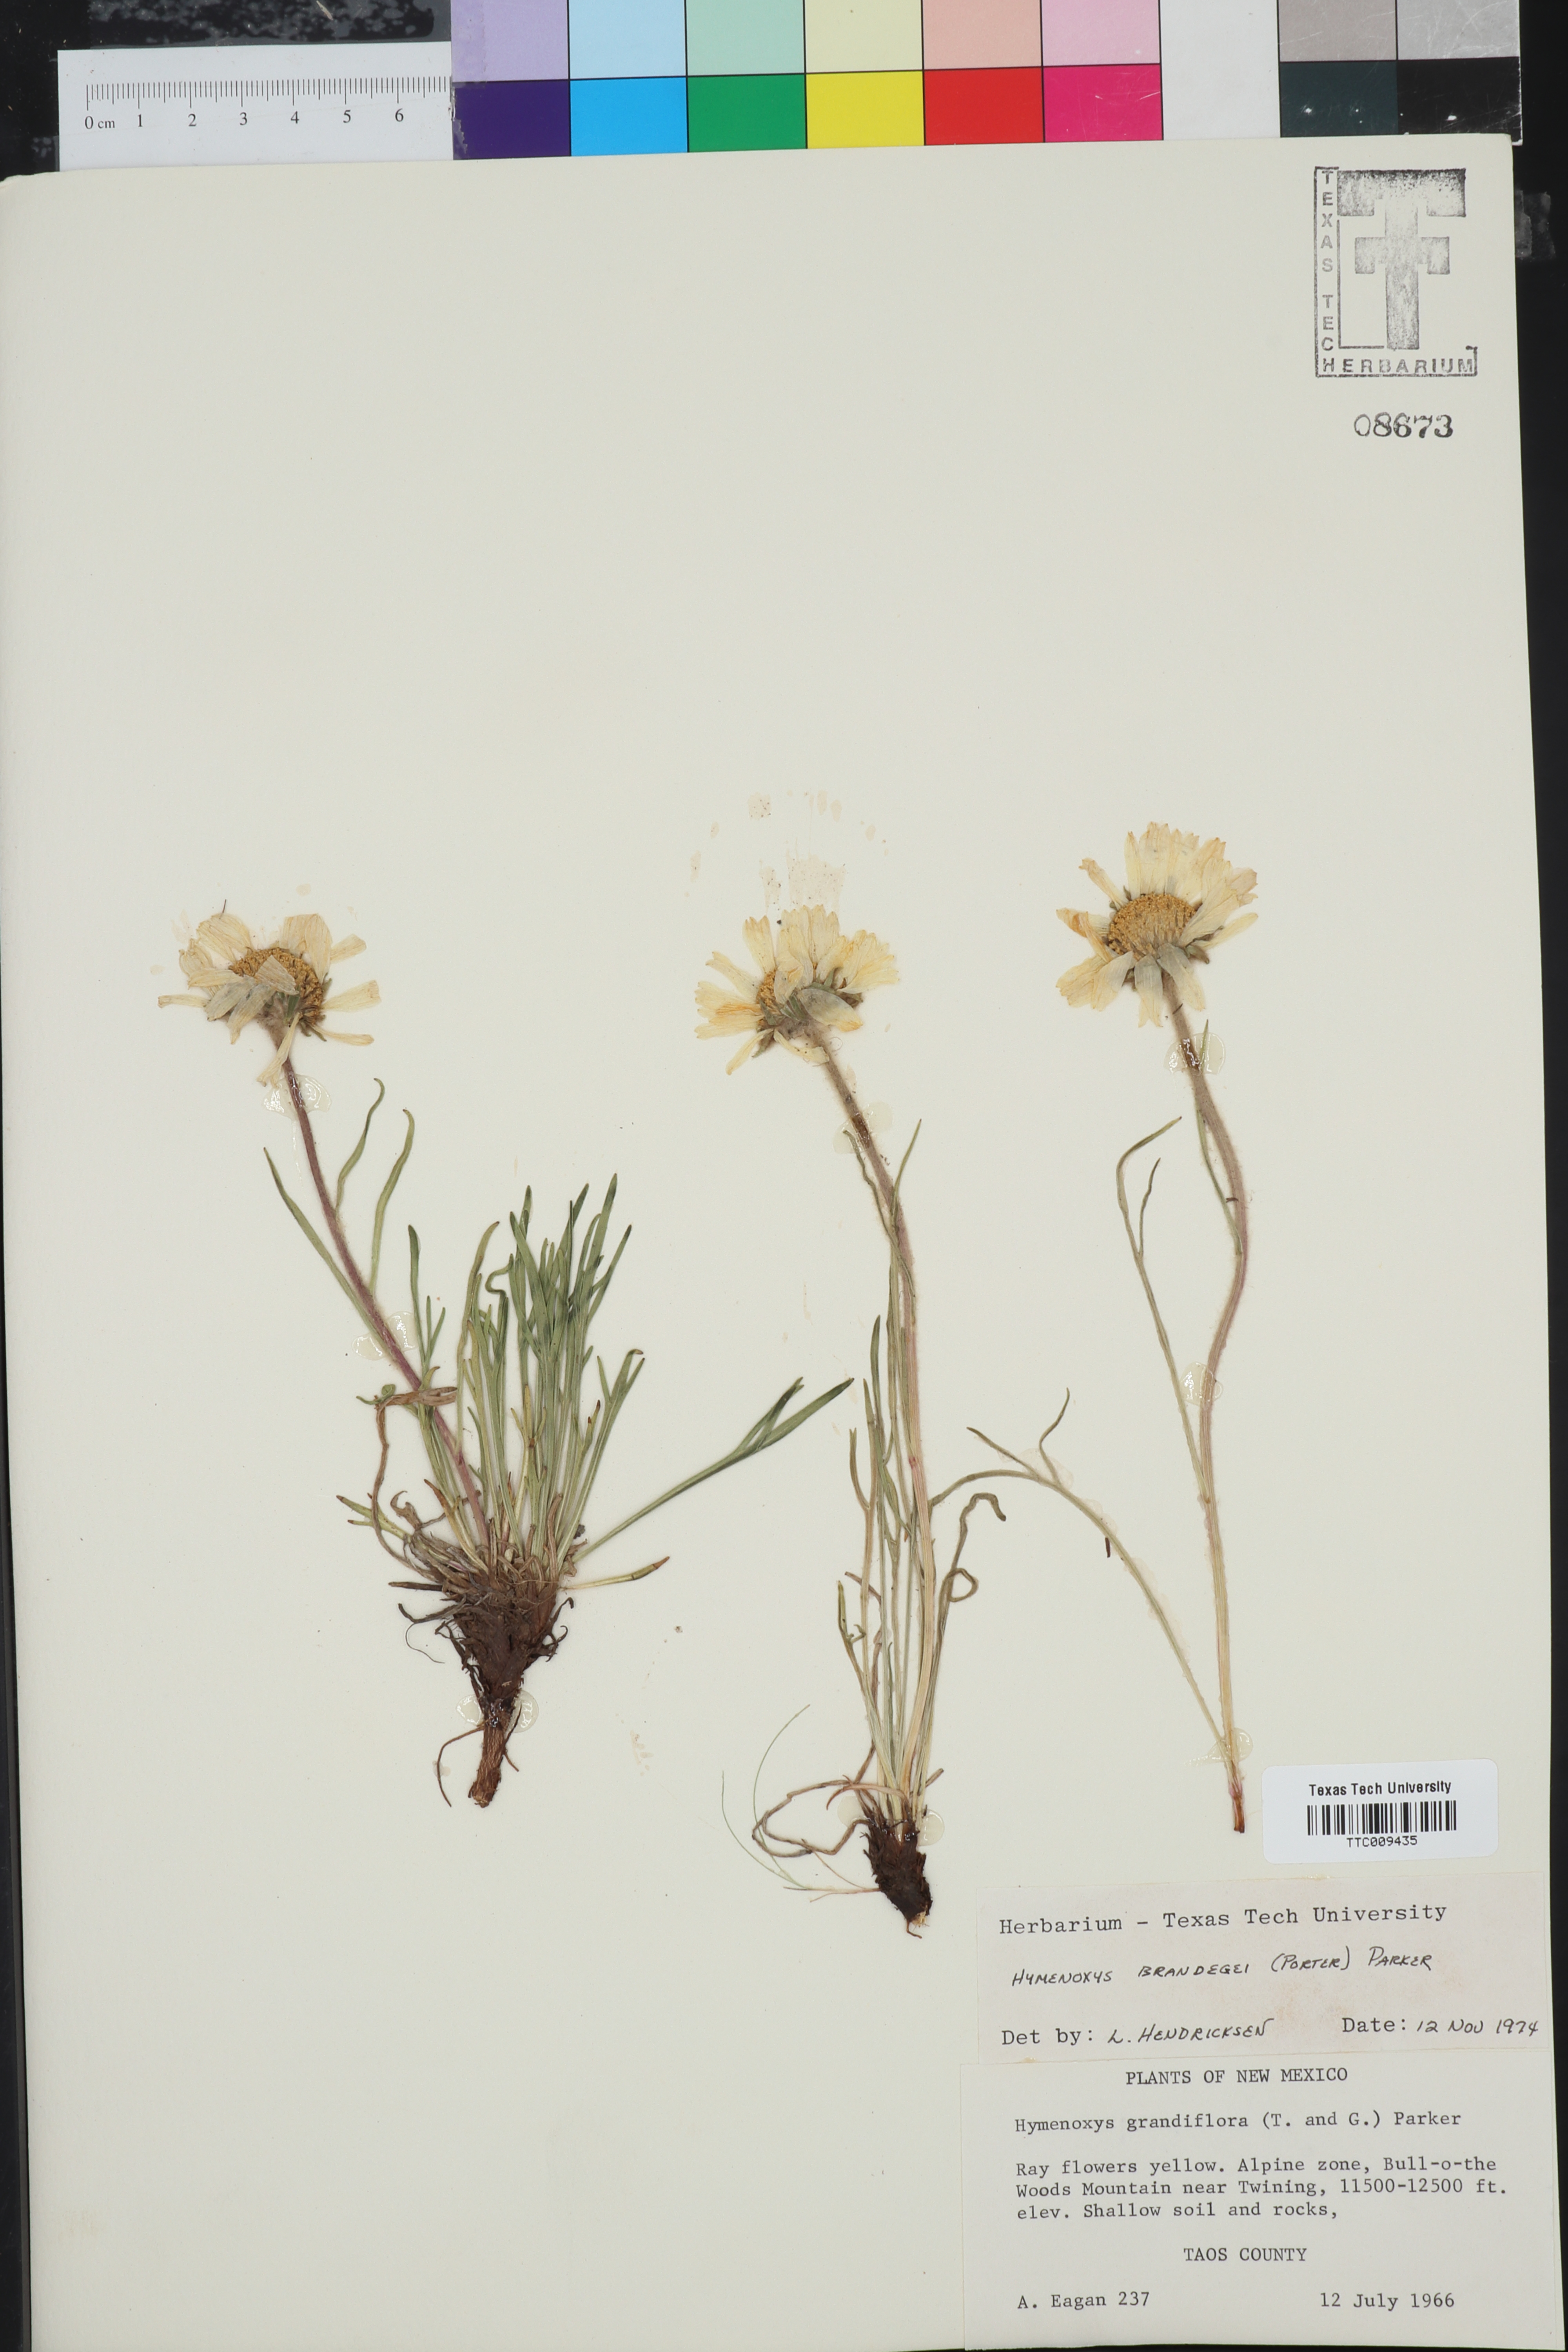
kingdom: Plantae
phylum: Tracheophyta
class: Magnoliopsida
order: Asterales
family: Asteraceae
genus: Hymenoxys
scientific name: Hymenoxys brandegeei
